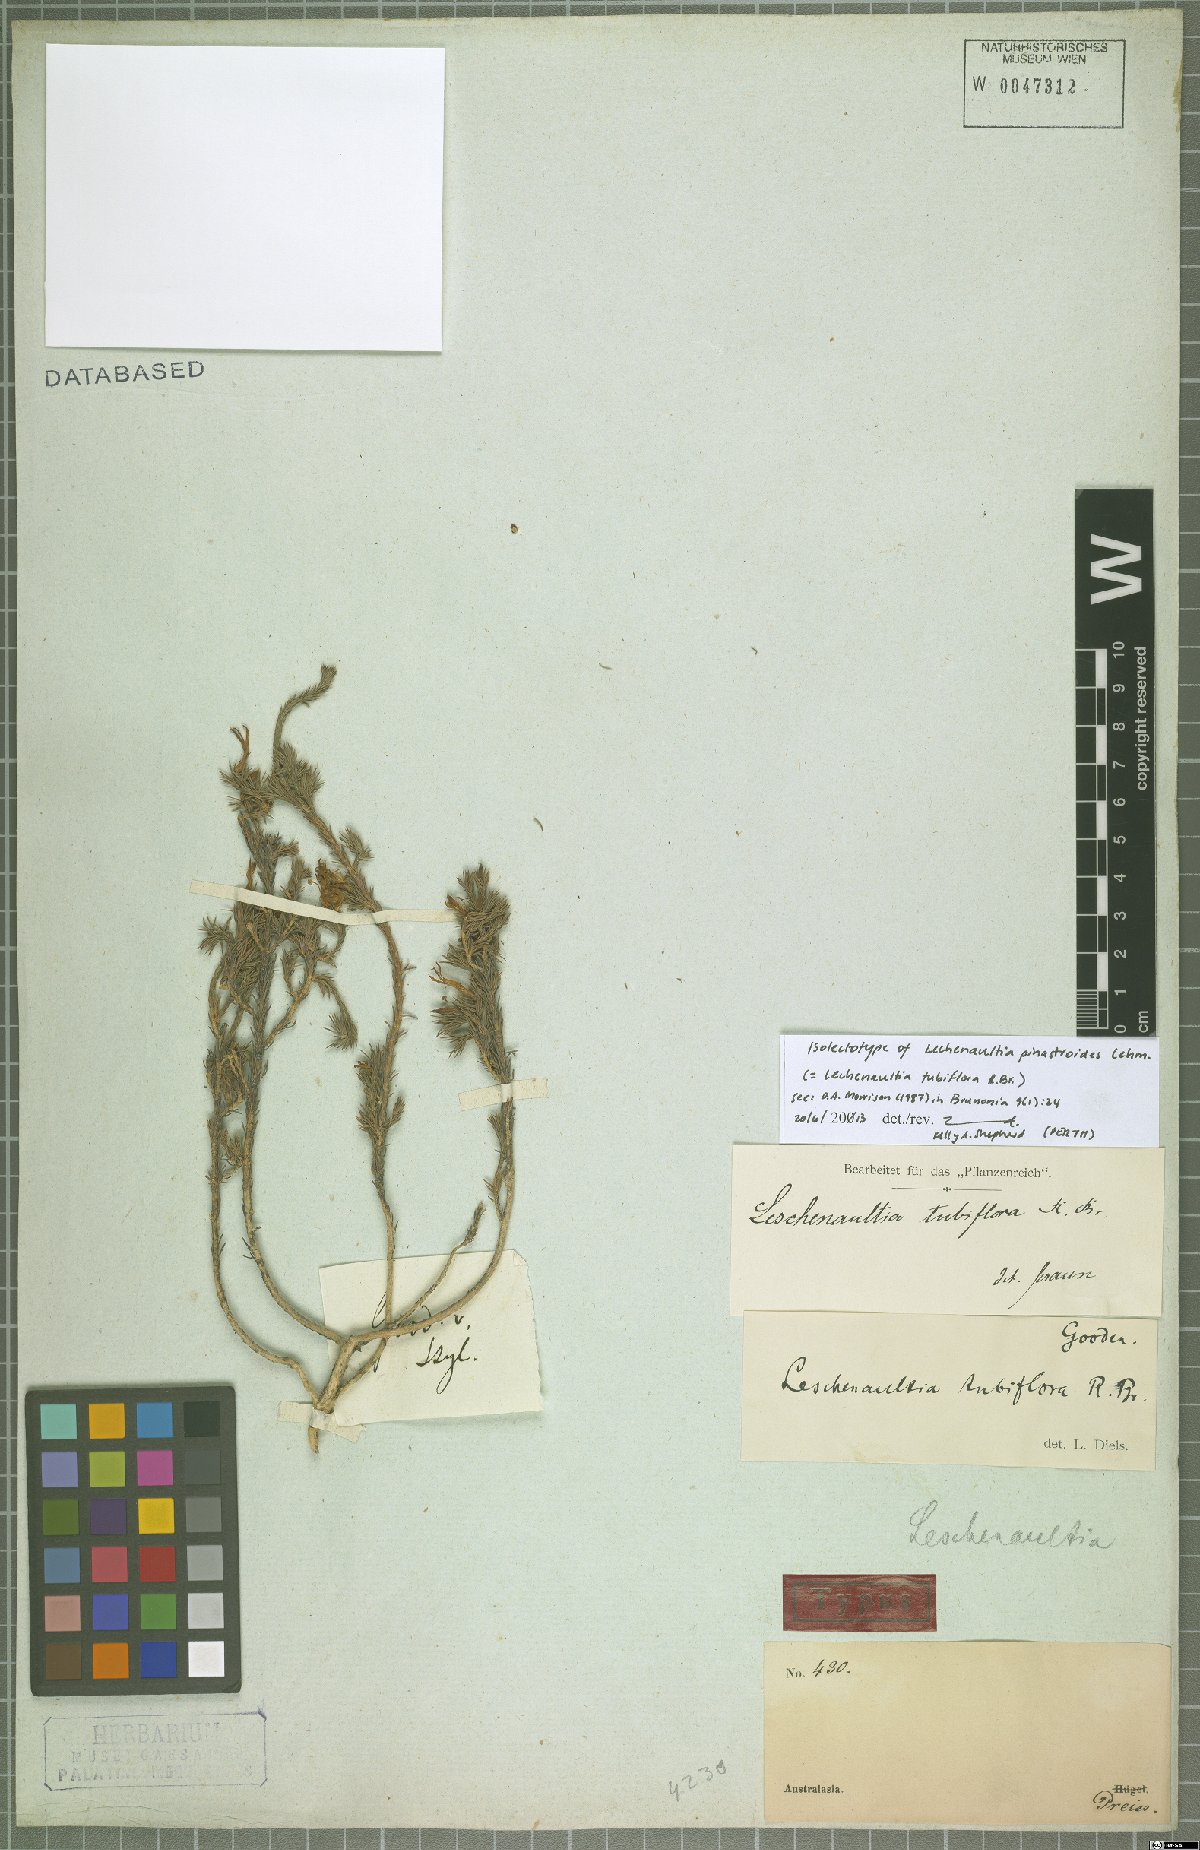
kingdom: Plantae
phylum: Tracheophyta
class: Magnoliopsida
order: Asterales
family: Goodeniaceae
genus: Lechenaultia
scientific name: Lechenaultia tubiflora
